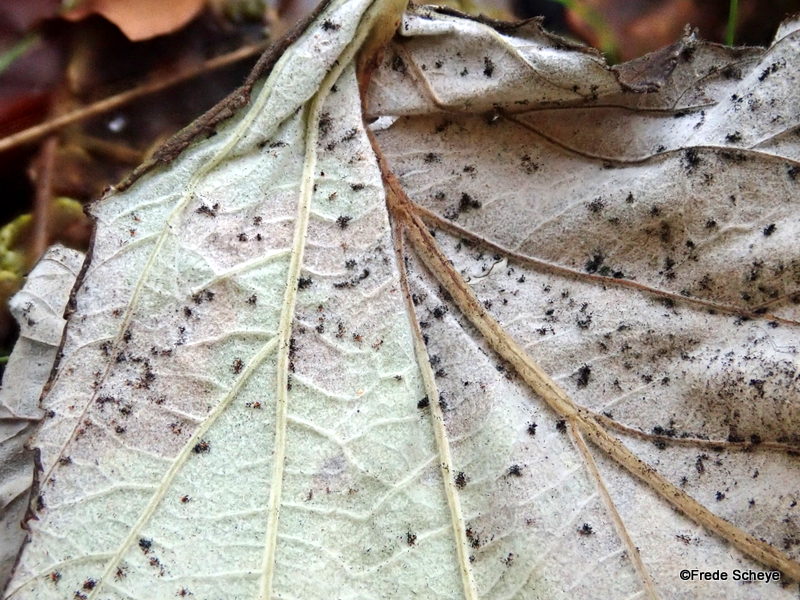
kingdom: Fungi
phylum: Basidiomycota
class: Pucciniomycetes
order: Pucciniales
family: Phragmidiaceae
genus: Phragmidium
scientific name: Phragmidium rubi-idaei
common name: hindbær-flercellerust
